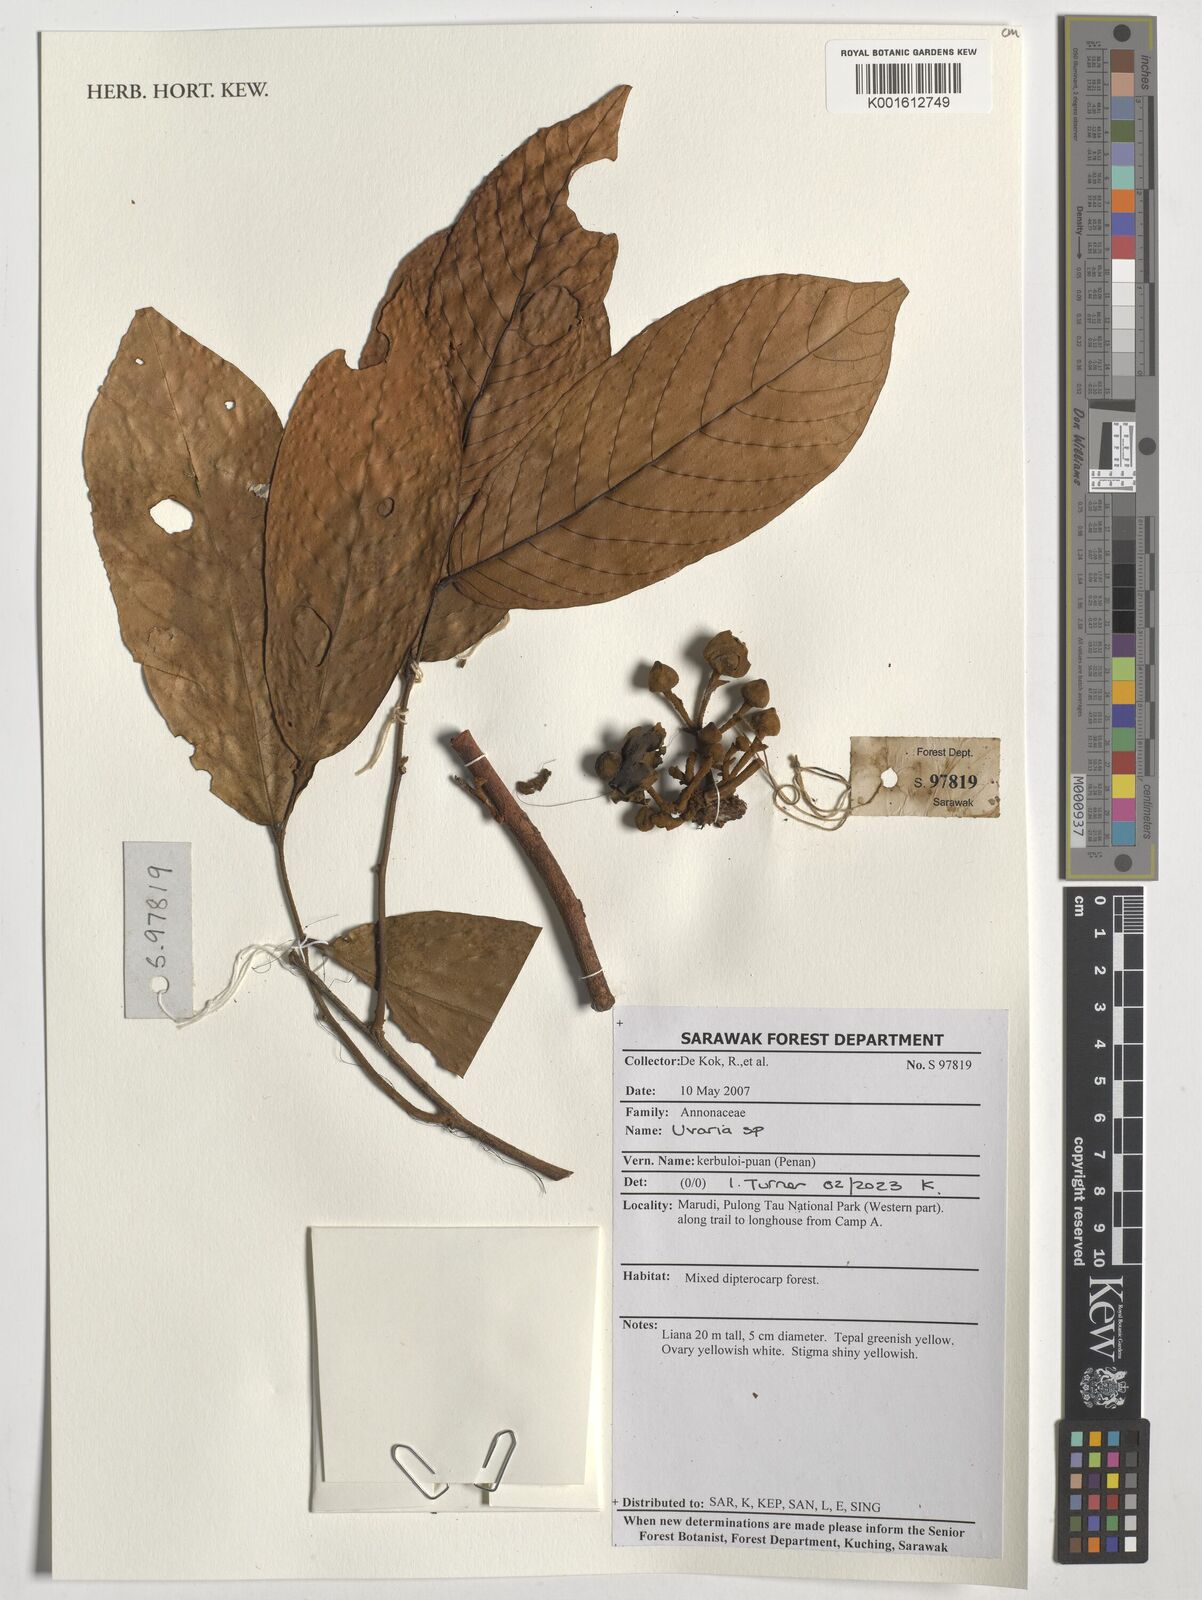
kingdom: Plantae
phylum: Tracheophyta
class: Magnoliopsida
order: Magnoliales
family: Annonaceae
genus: Uvaria
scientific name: Uvaria
